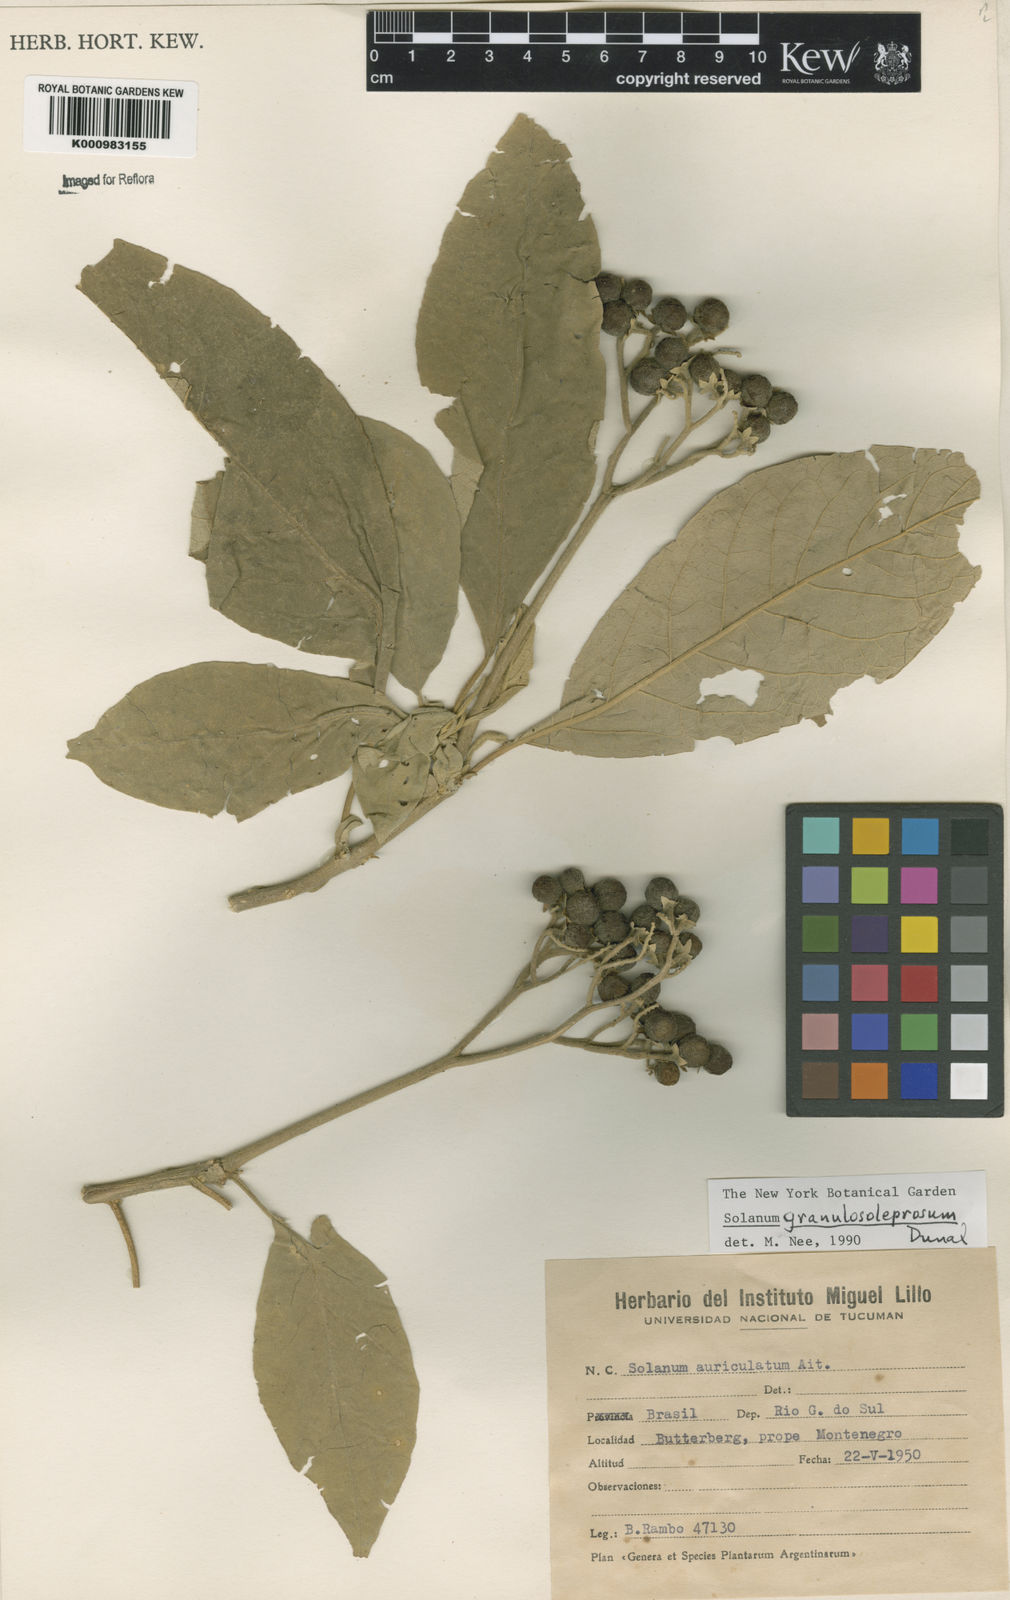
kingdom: Plantae
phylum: Tracheophyta
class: Magnoliopsida
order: Solanales
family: Solanaceae
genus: Solanum
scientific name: Solanum granulosoleprosum
